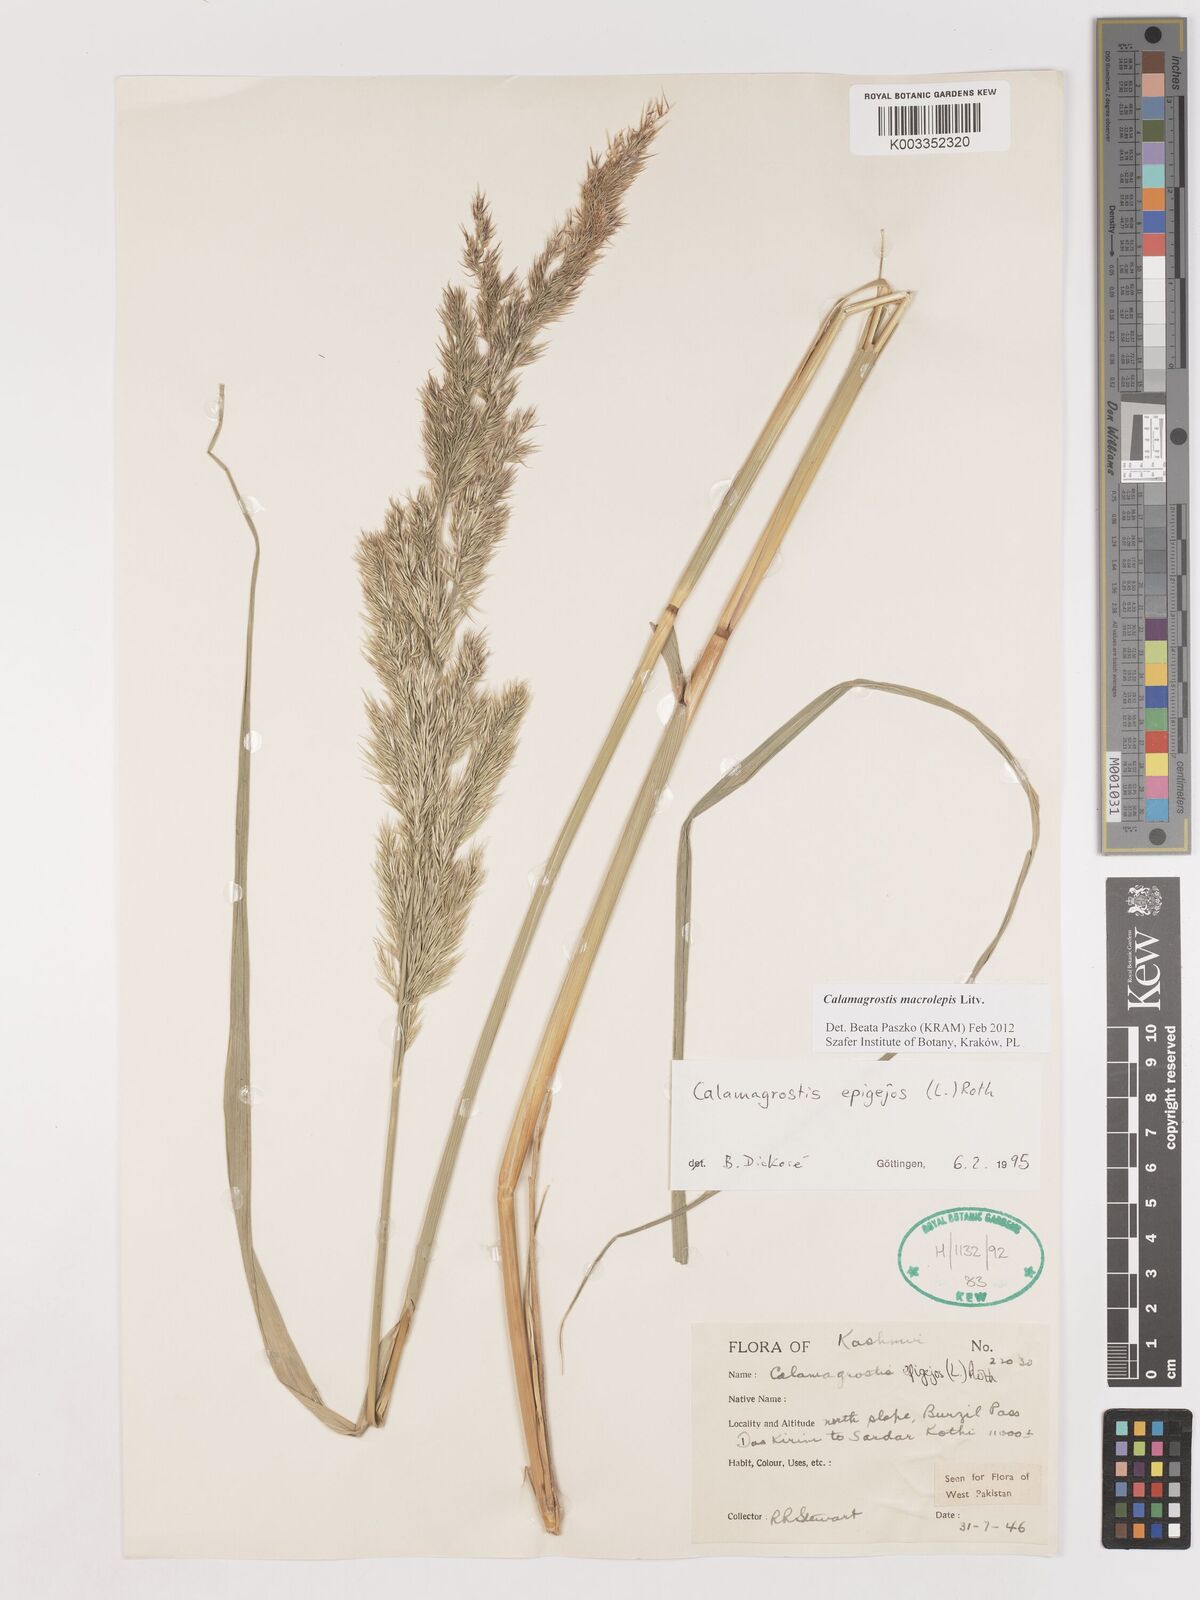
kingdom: Plantae
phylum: Tracheophyta
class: Liliopsida
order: Poales
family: Poaceae
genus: Calamagrostis
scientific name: Calamagrostis epigejos
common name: Wood small-reed
